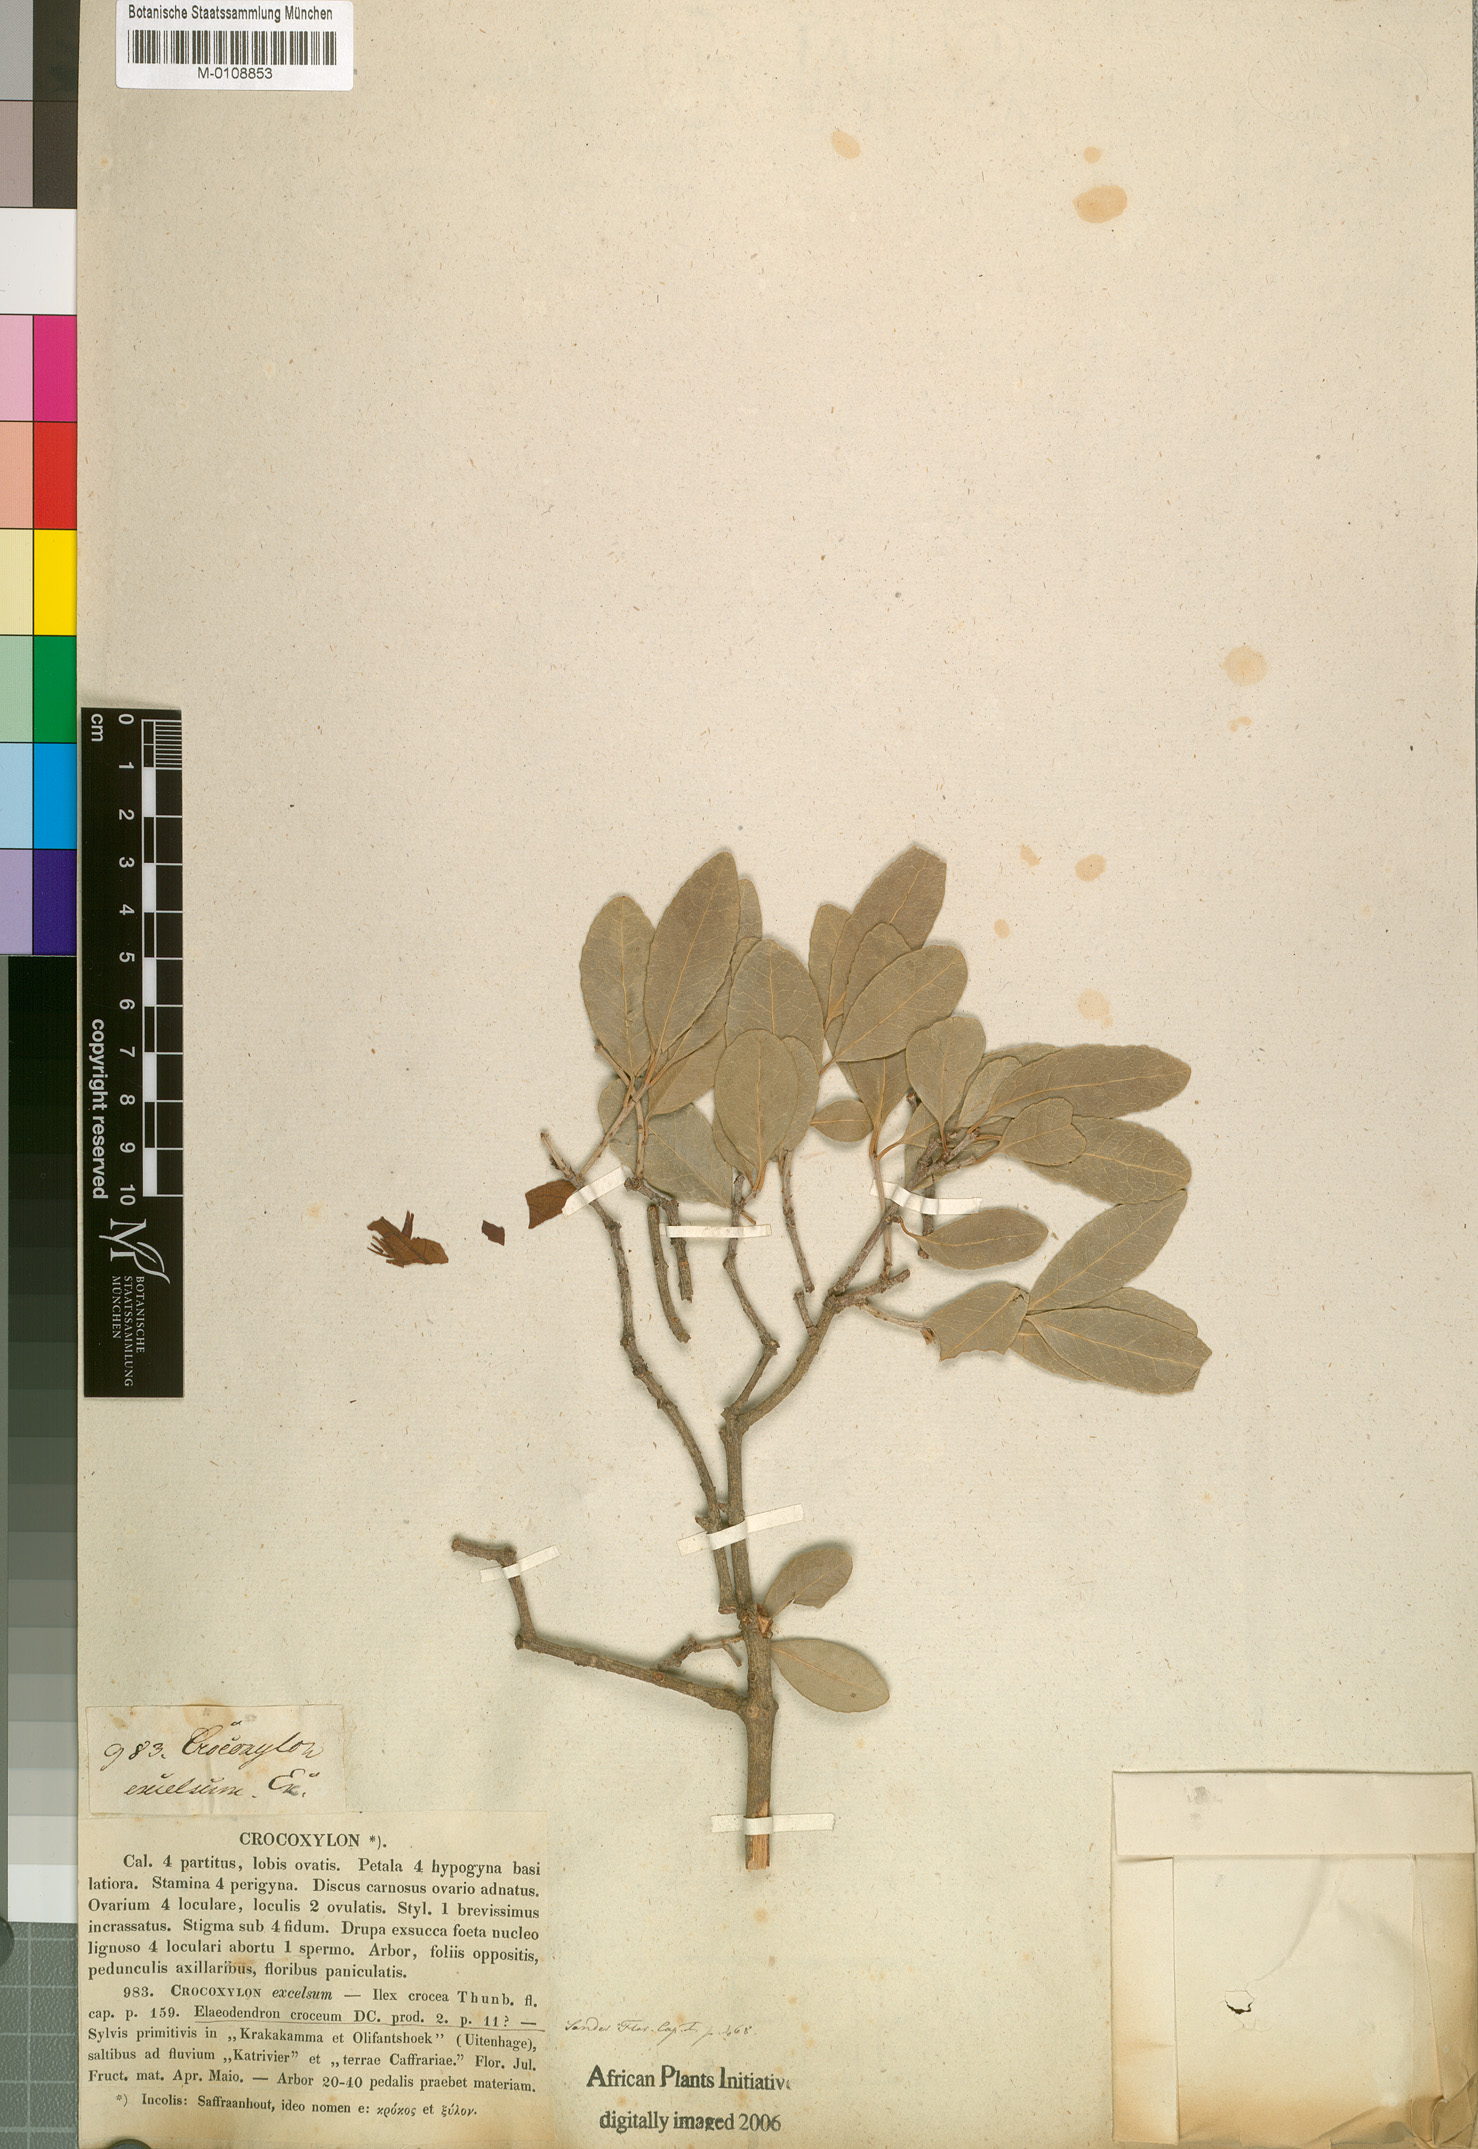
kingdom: Plantae
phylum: Tracheophyta
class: Magnoliopsida
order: Celastrales
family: Celastraceae
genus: Elaeodendron
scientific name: Elaeodendron zeyheri
